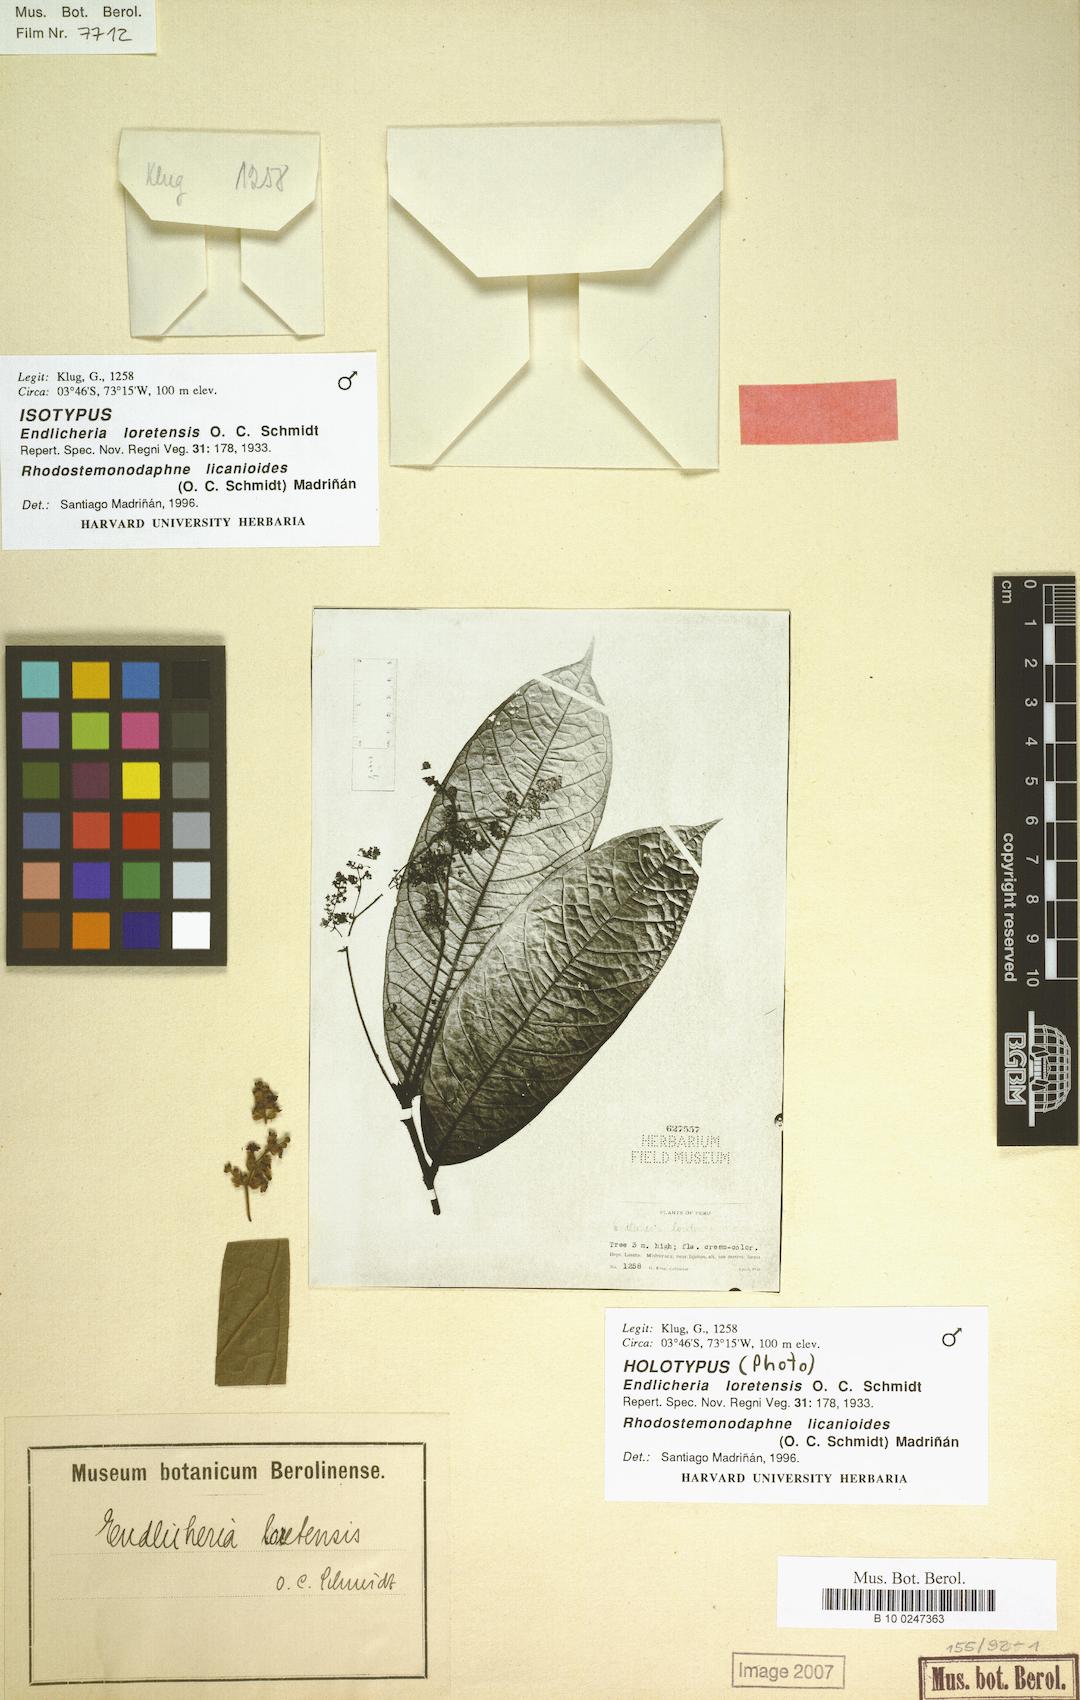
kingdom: Plantae
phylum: Tracheophyta
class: Magnoliopsida
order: Laurales
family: Lauraceae
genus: Rhodostemonodaphne
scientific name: Rhodostemonodaphne licanioides
